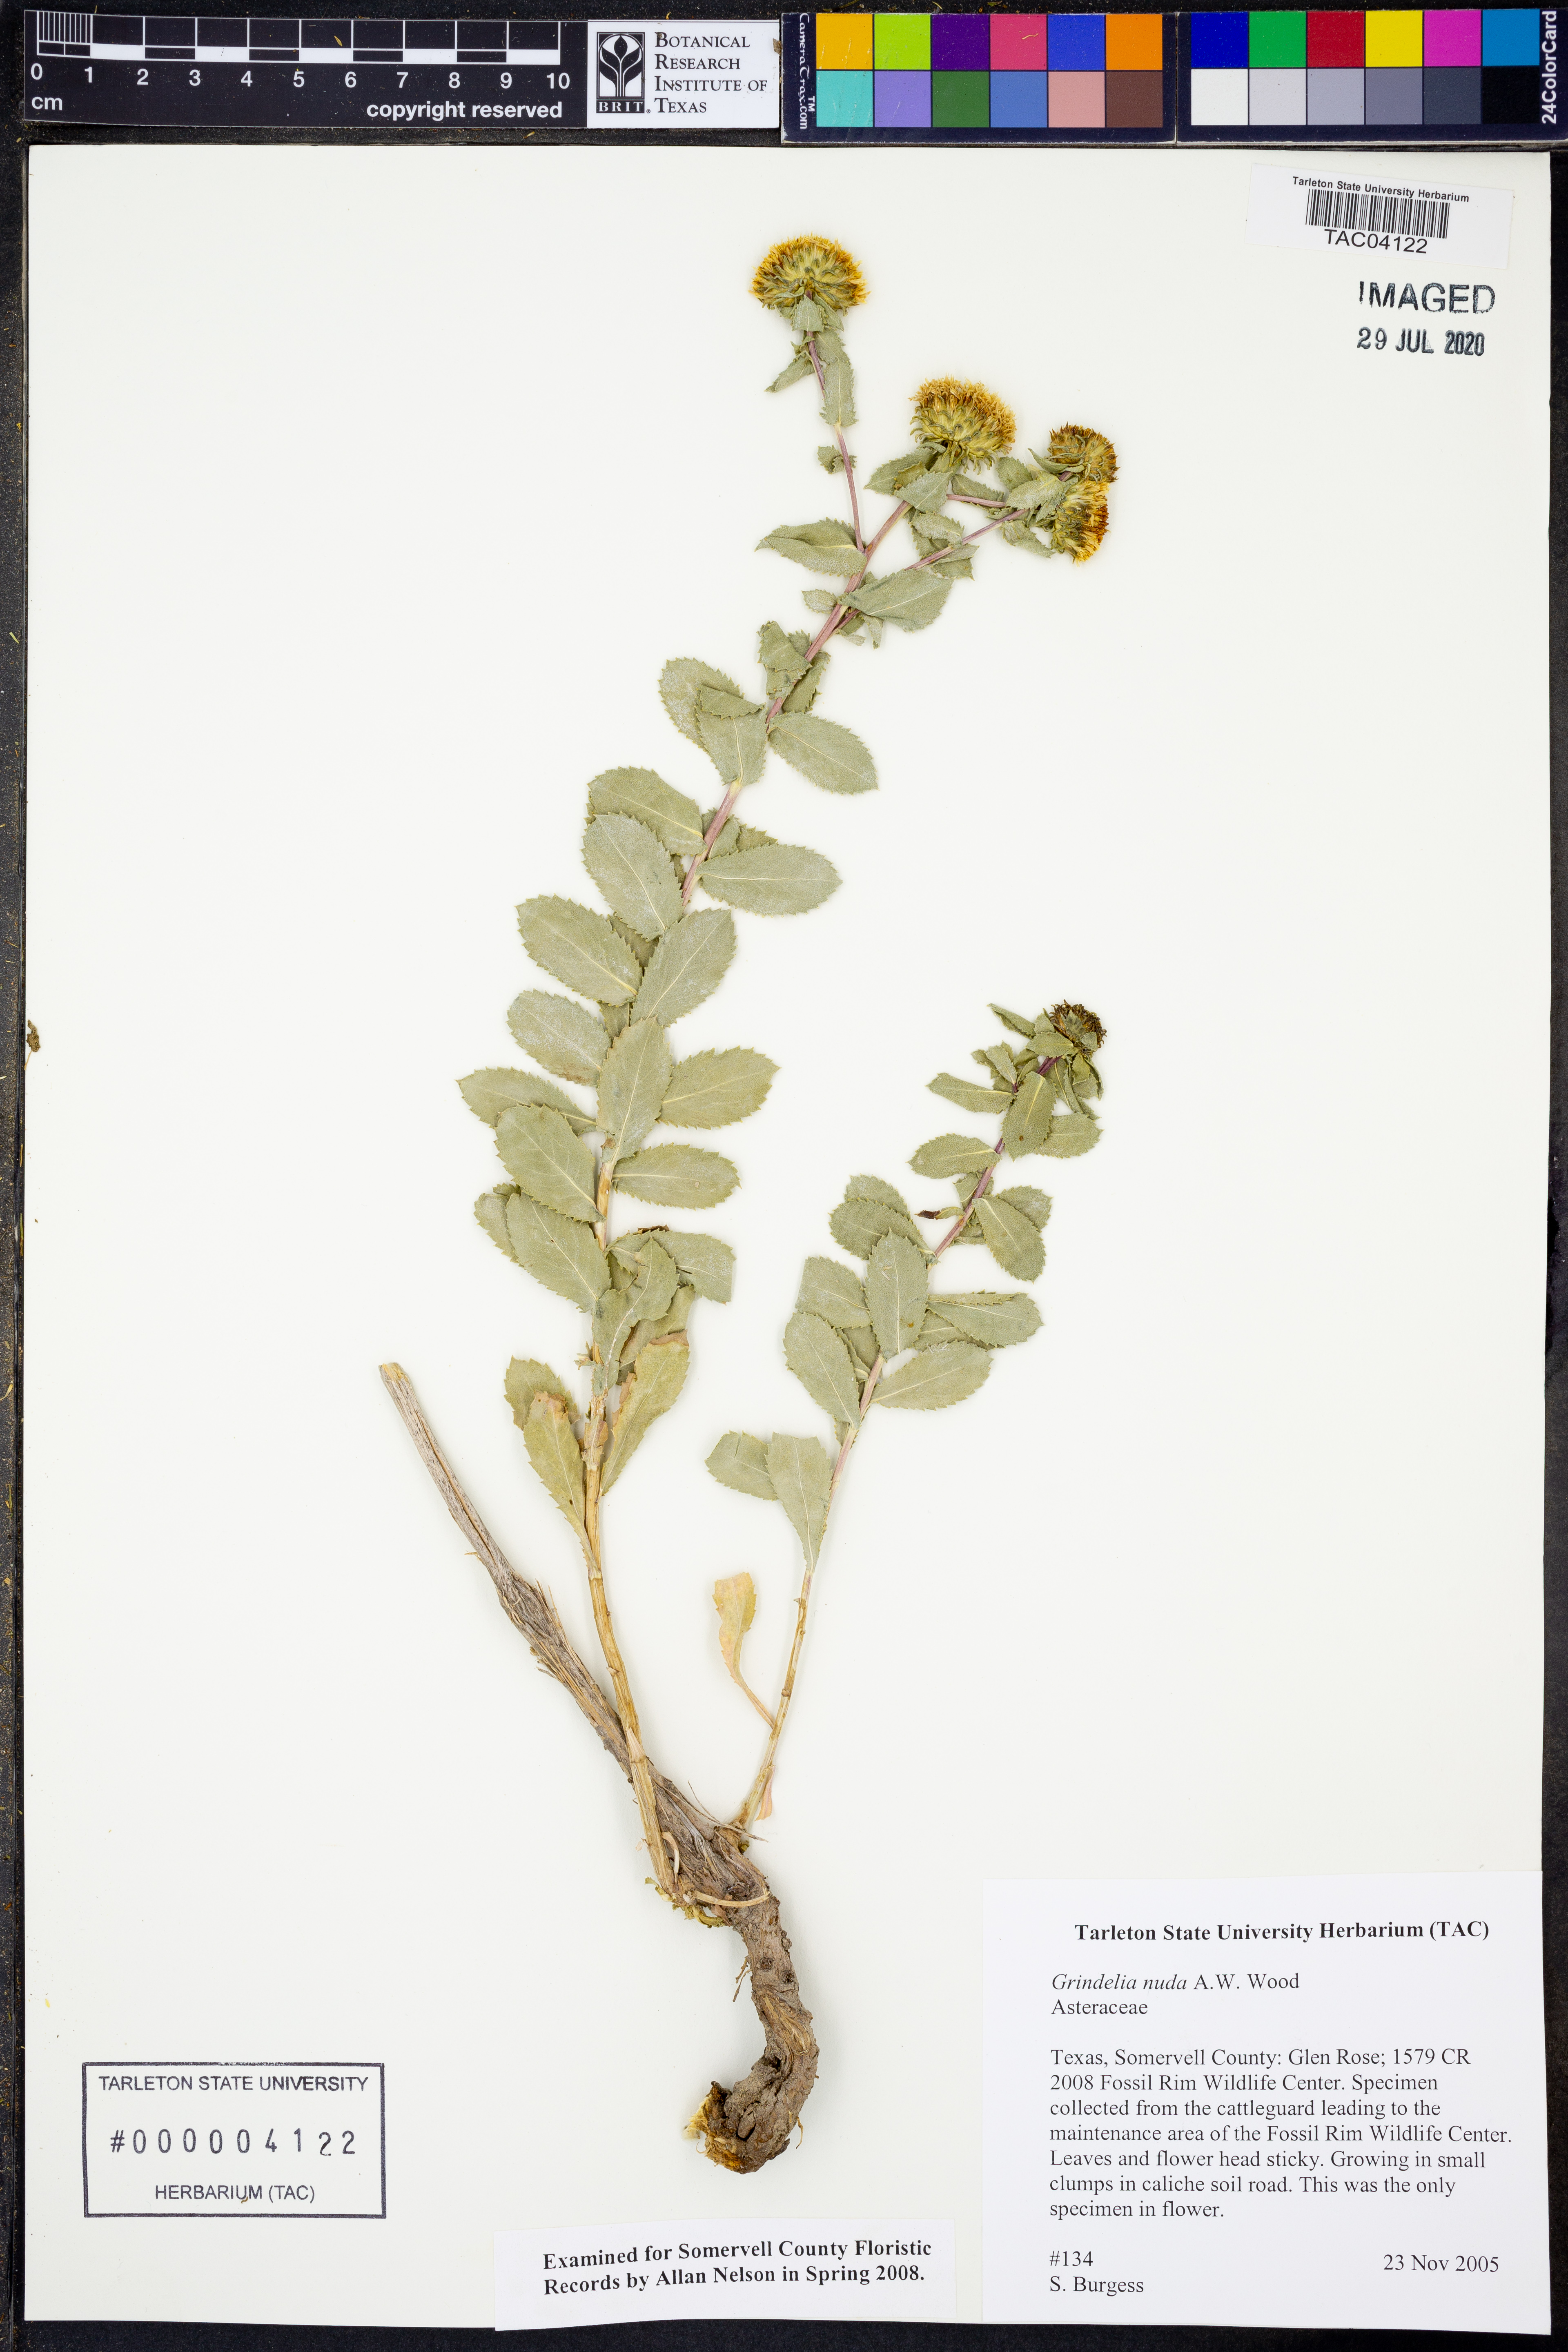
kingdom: Plantae
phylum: Tracheophyta
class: Magnoliopsida
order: Asterales
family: Asteraceae
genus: Grindelia
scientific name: Grindelia nuda
